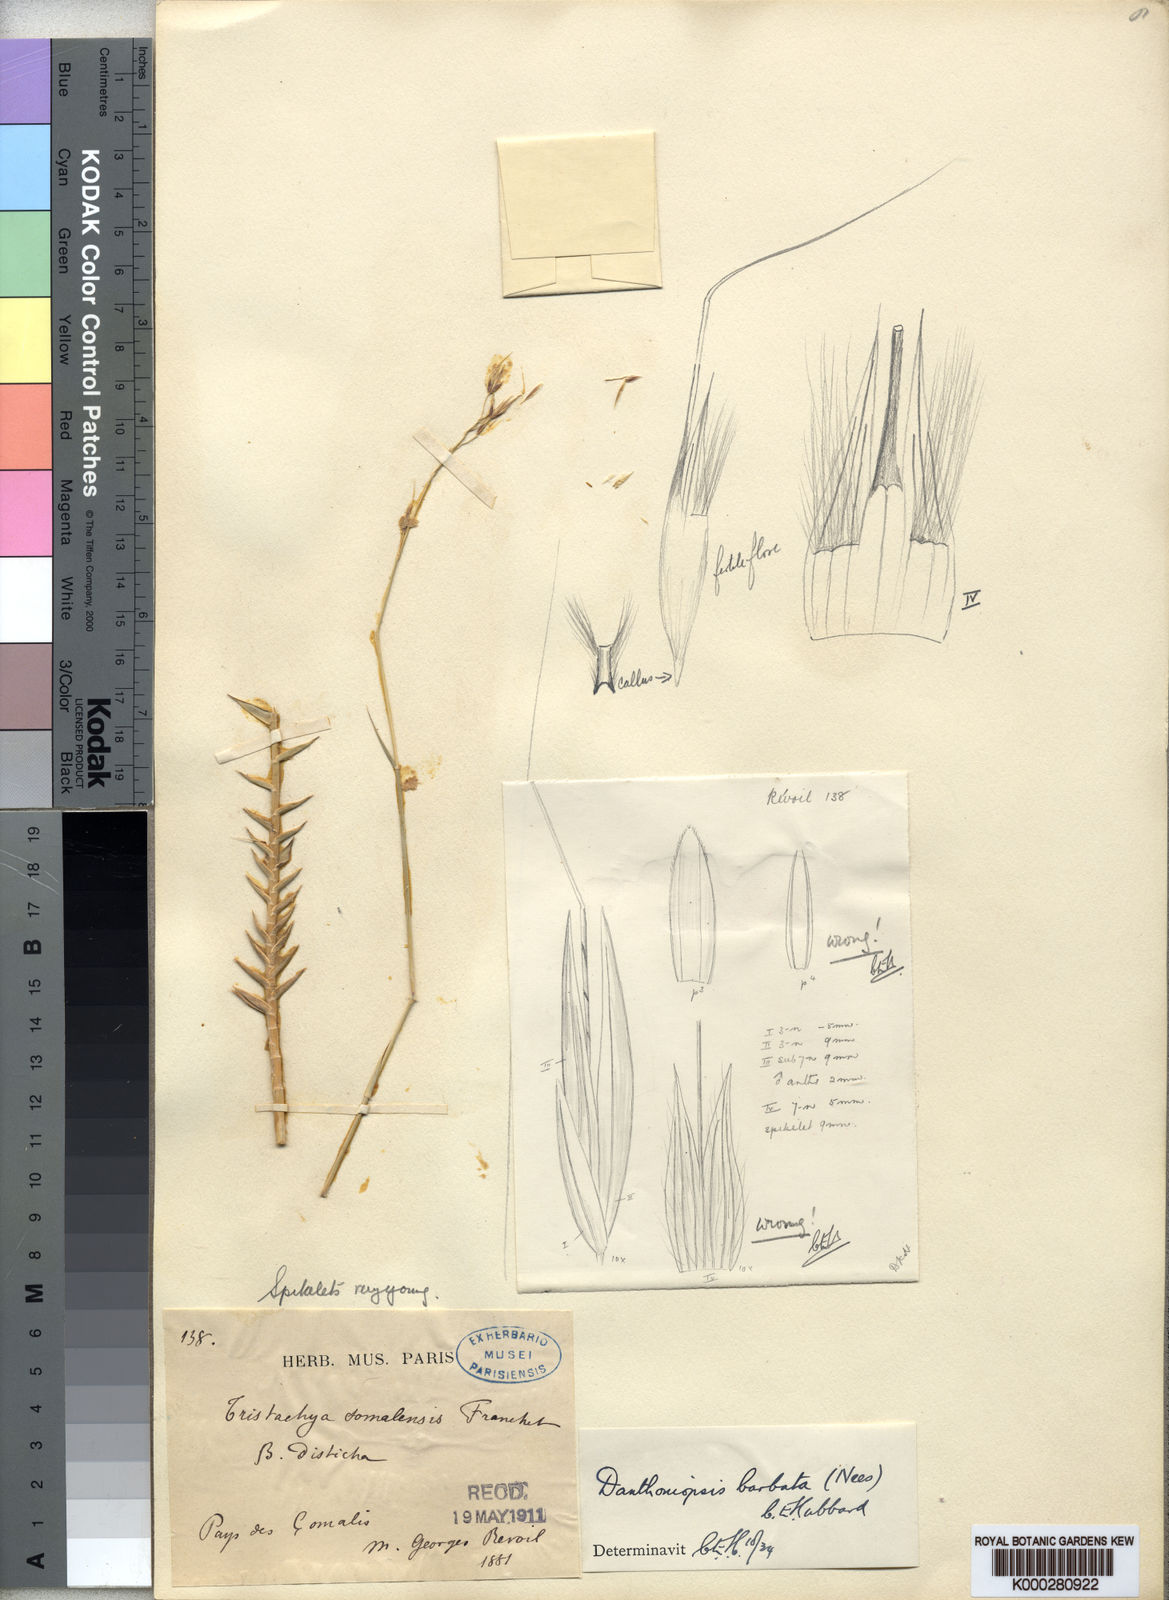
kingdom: Plantae
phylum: Tracheophyta
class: Liliopsida
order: Poales
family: Poaceae
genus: Danthoniopsis
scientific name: Danthoniopsis barbata
